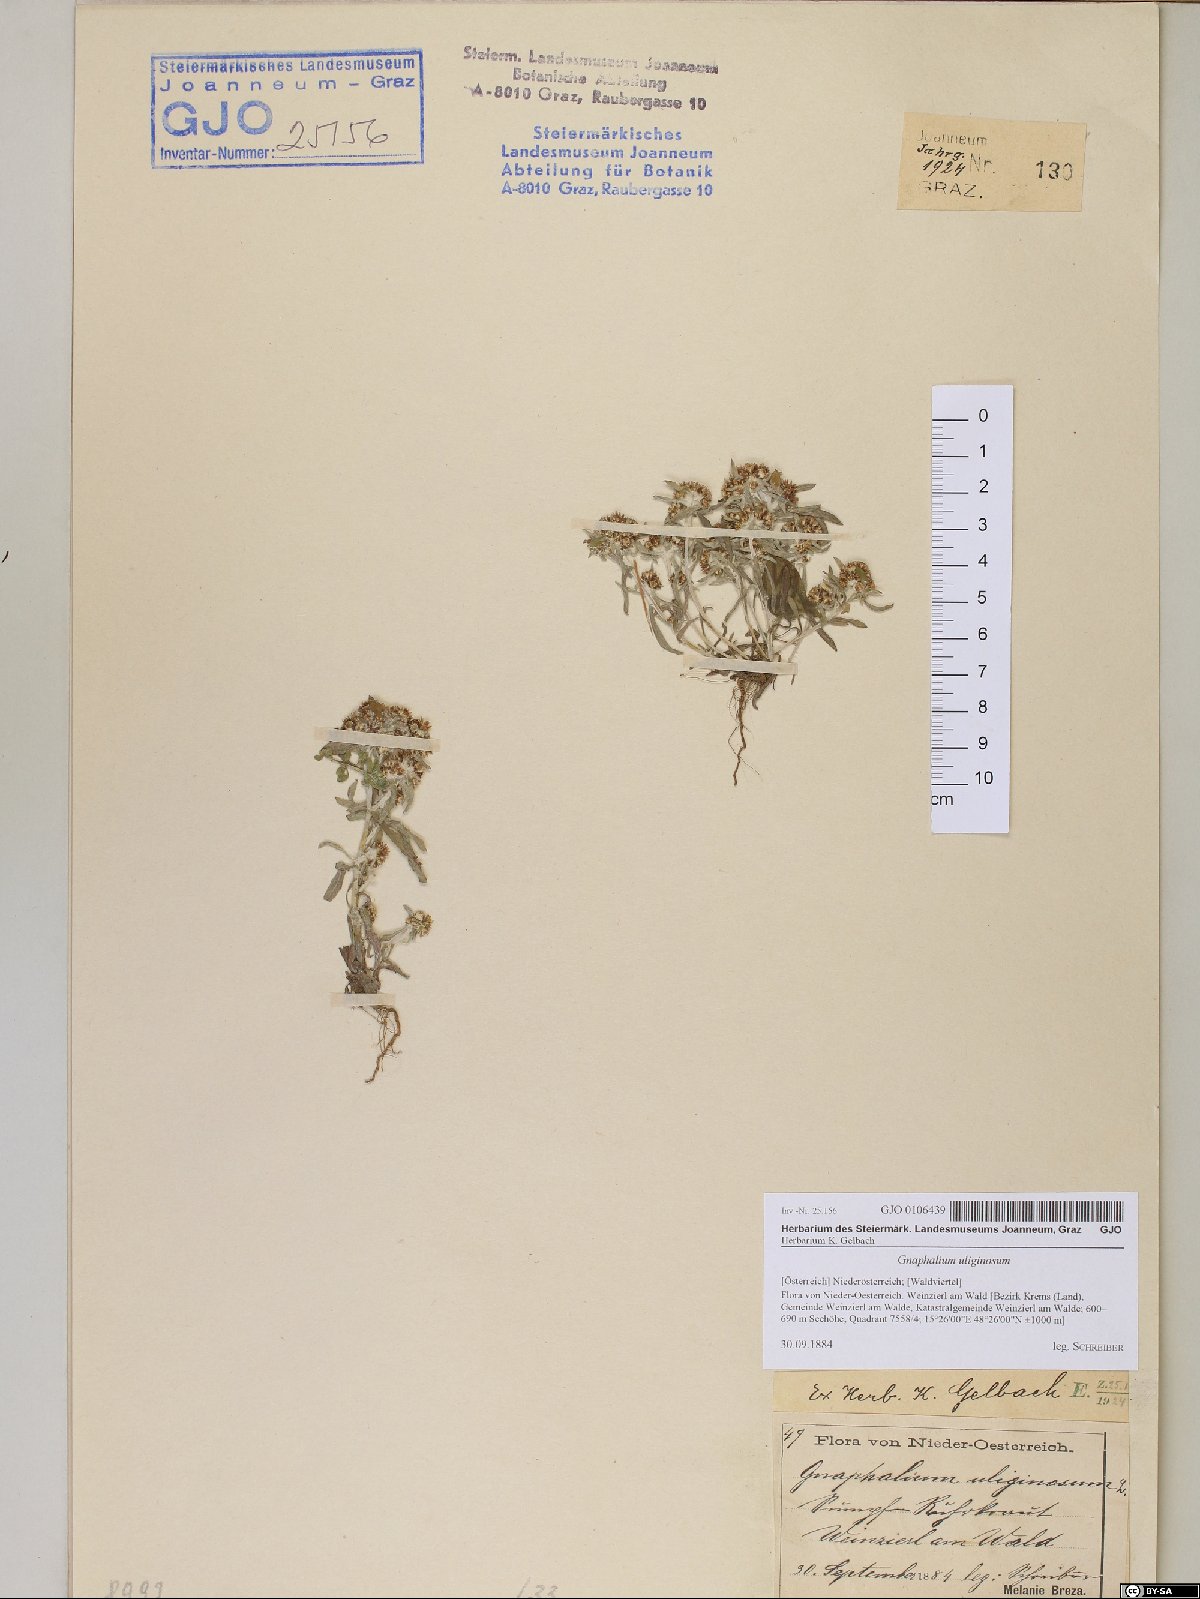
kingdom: Plantae
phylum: Tracheophyta
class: Magnoliopsida
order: Asterales
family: Asteraceae
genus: Gnaphalium
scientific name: Gnaphalium uliginosum
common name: Marsh cudweed
